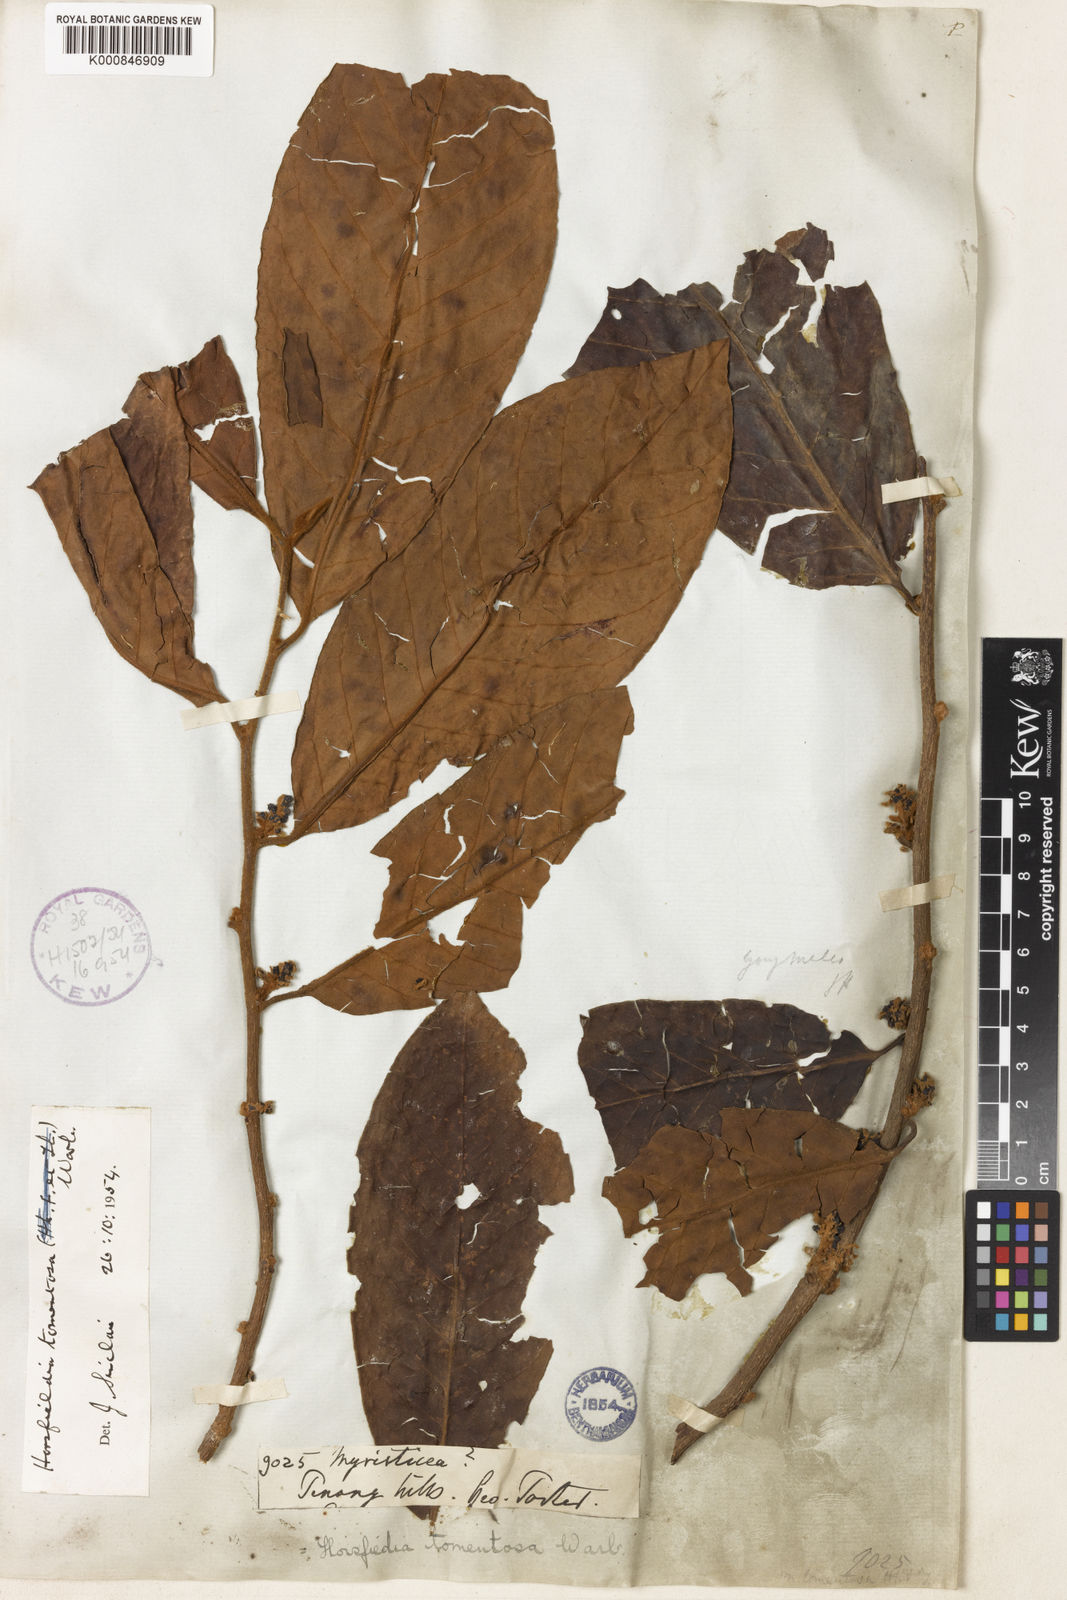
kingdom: Plantae
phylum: Tracheophyta
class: Magnoliopsida
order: Magnoliales
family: Myristicaceae
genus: Horsfieldia
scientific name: Horsfieldia tomentosa
